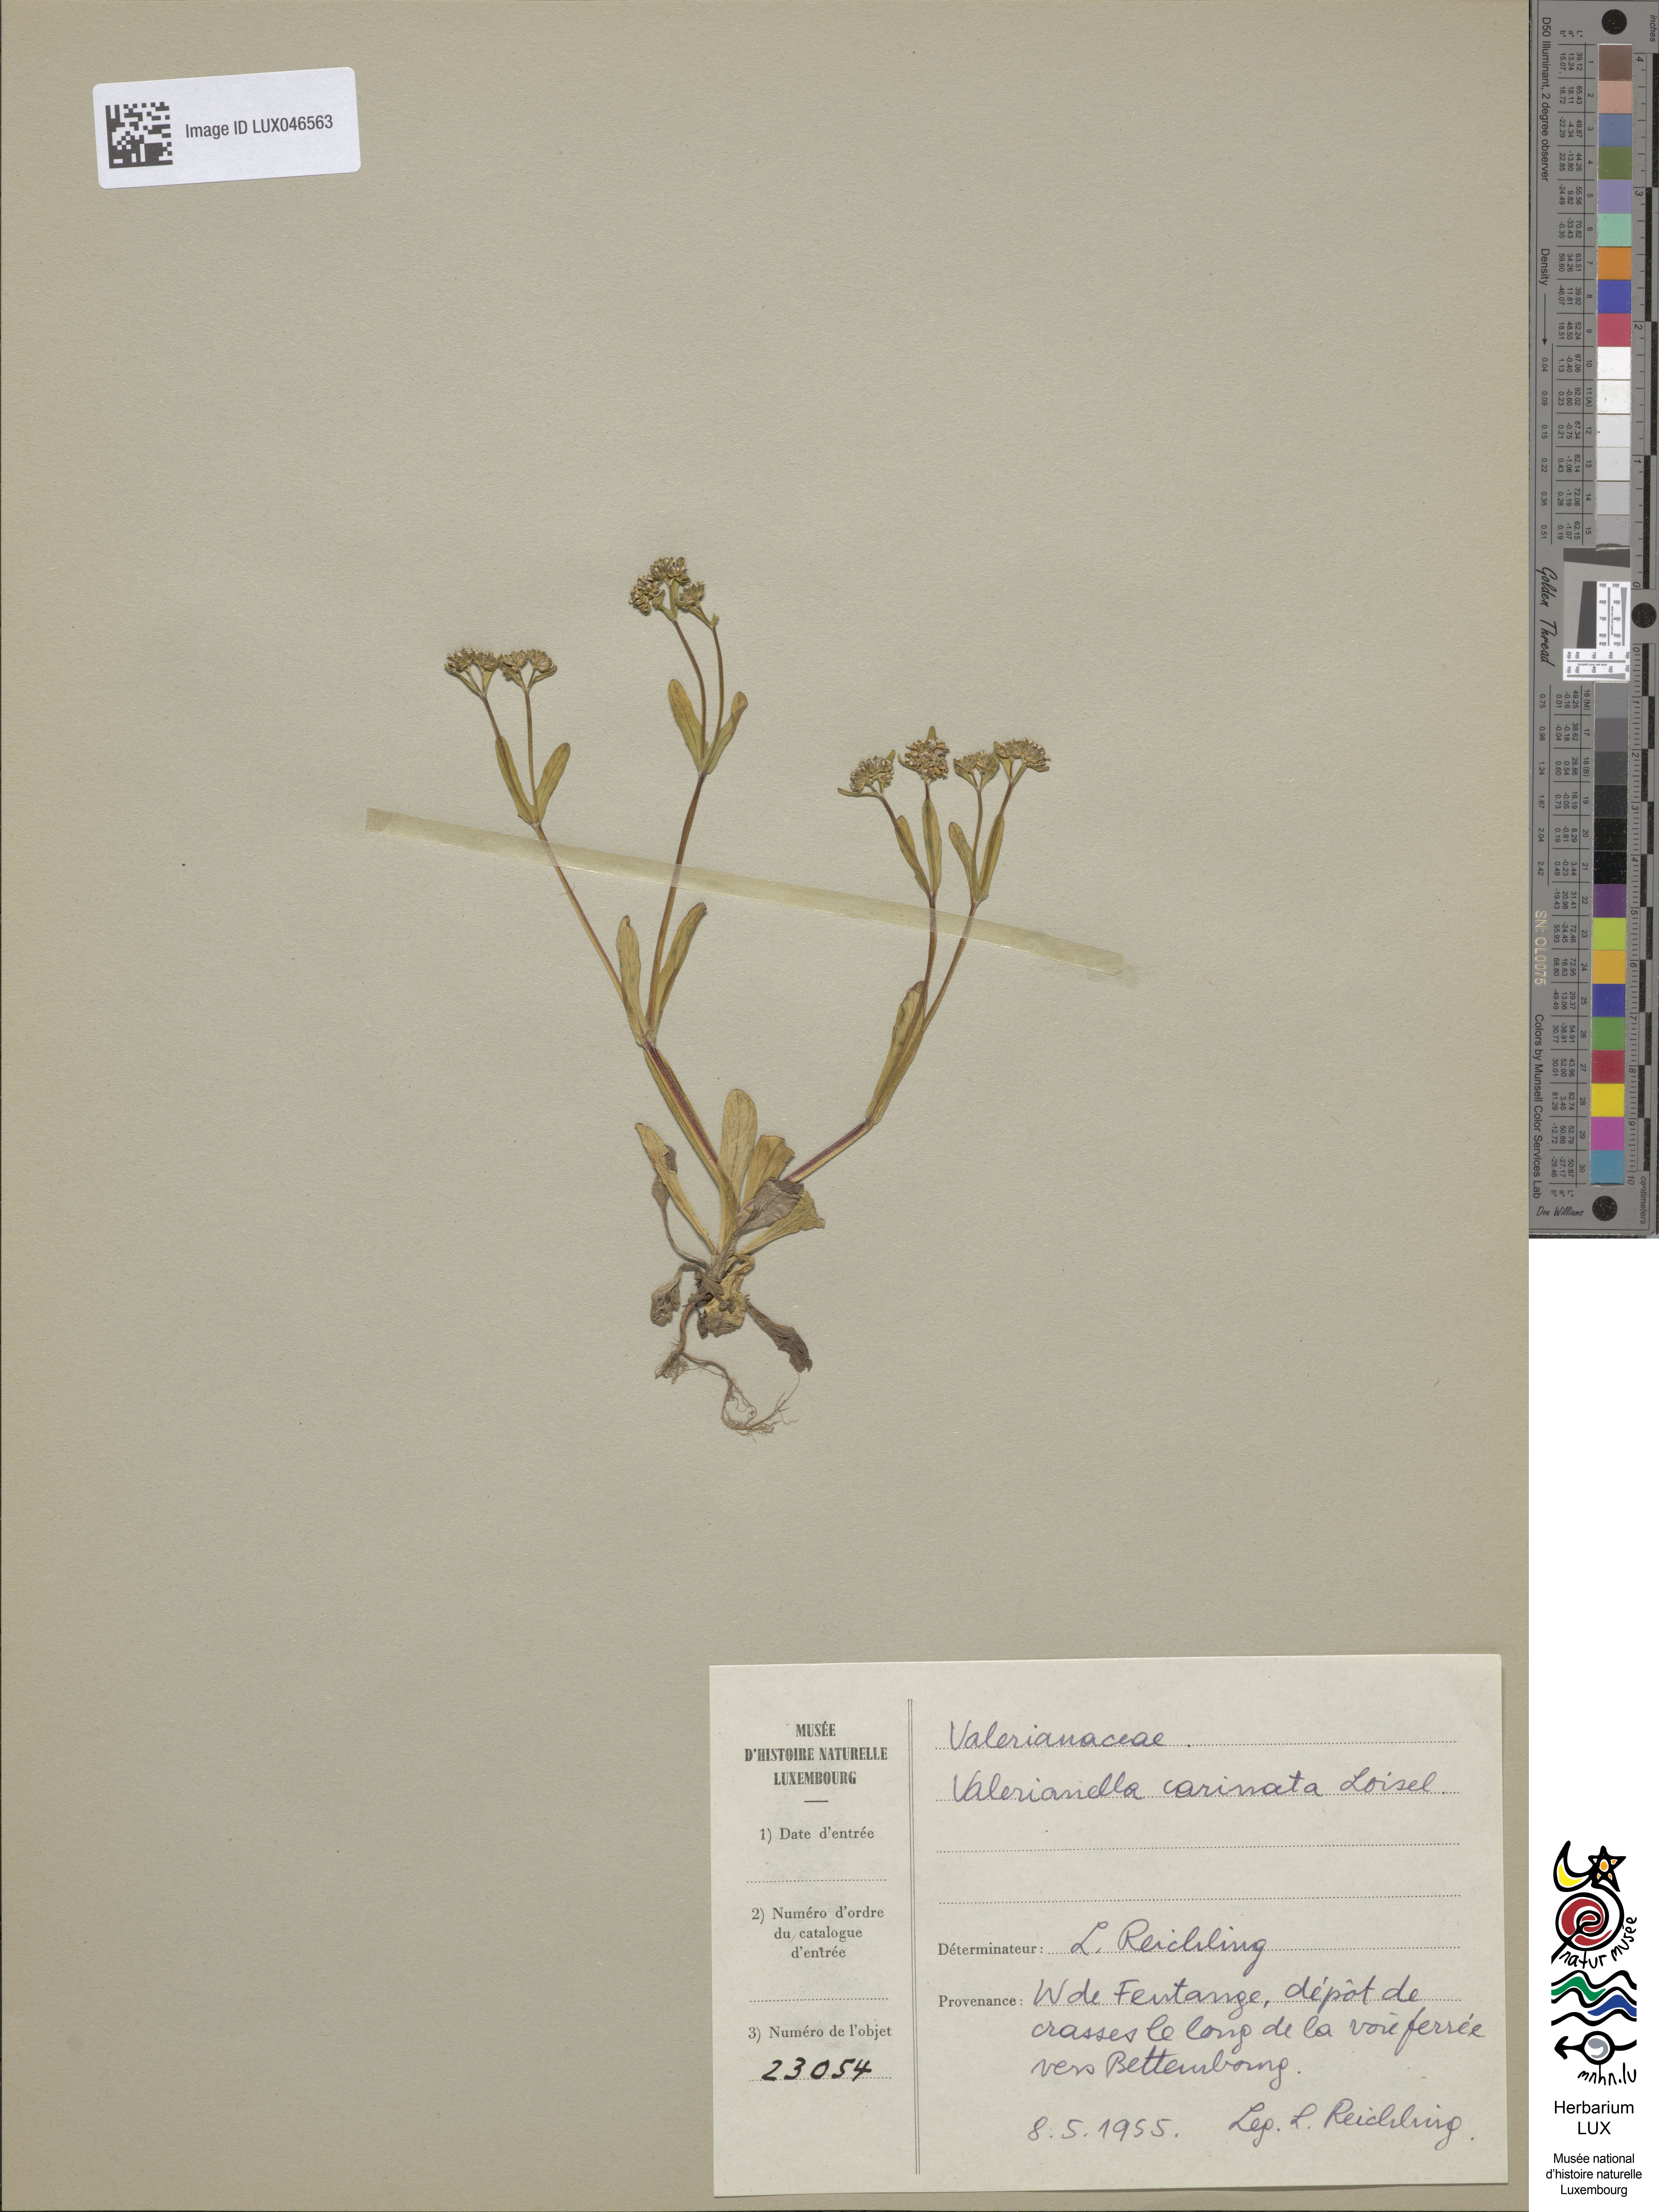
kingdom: Plantae
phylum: Tracheophyta
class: Magnoliopsida
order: Dipsacales
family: Caprifoliaceae
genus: Valerianella
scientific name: Valerianella carinata
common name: Keeled-fruited cornsalad
